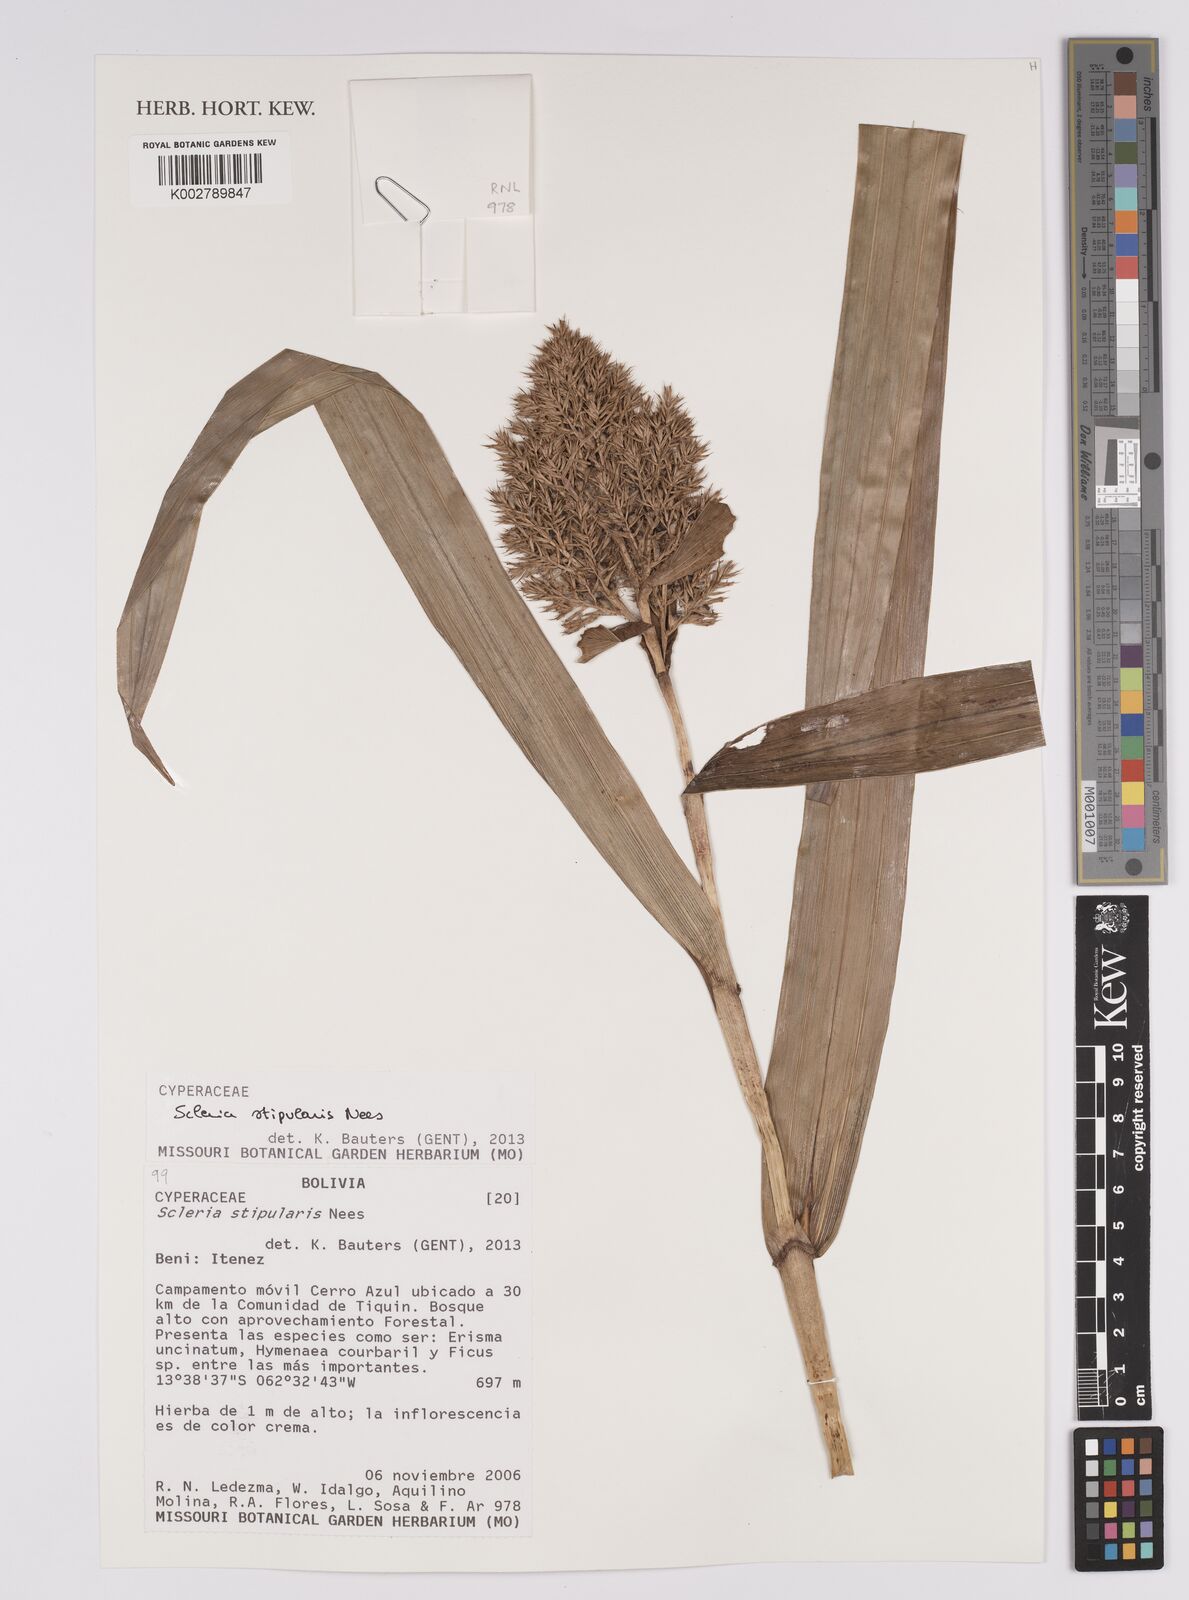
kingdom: Plantae
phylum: Tracheophyta
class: Liliopsida
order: Poales
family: Cyperaceae
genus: Scleria
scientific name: Scleria stipularis
